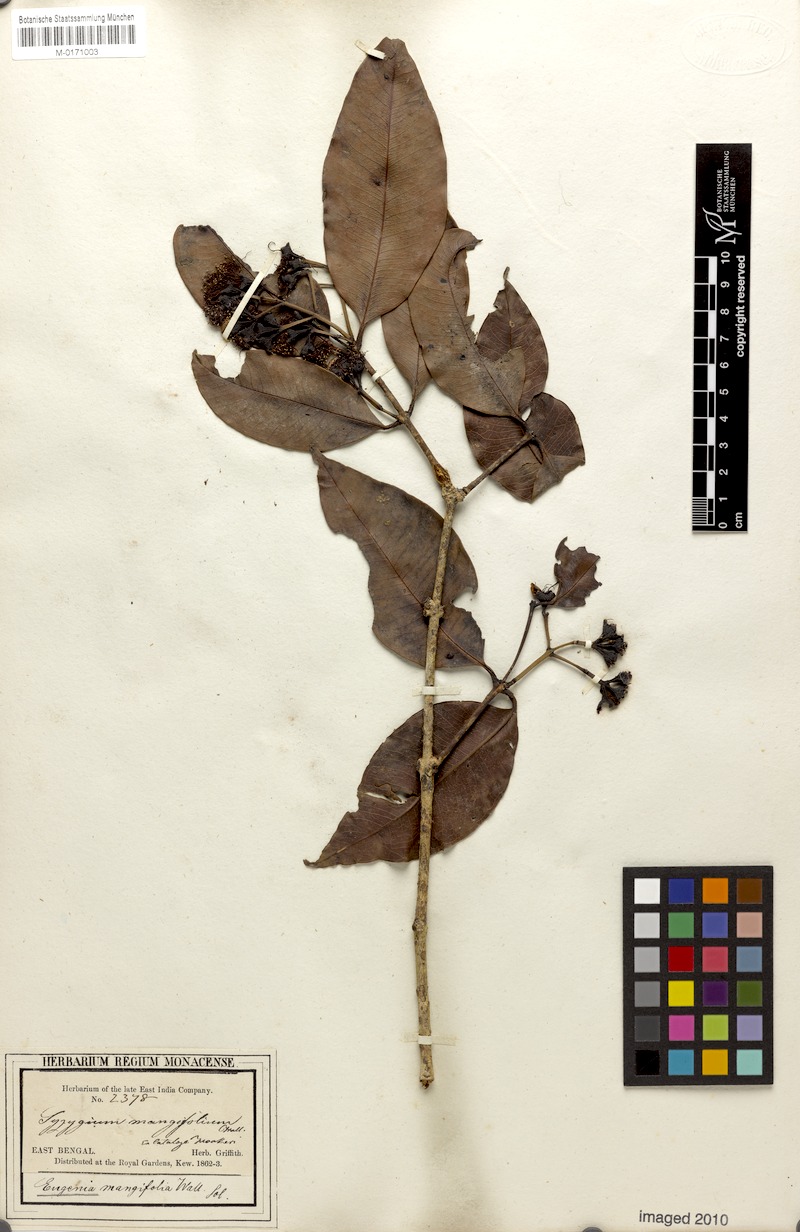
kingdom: Plantae
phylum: Tracheophyta
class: Magnoliopsida
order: Myrtales
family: Myrtaceae
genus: Syzygium
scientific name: Syzygium reticulatum
